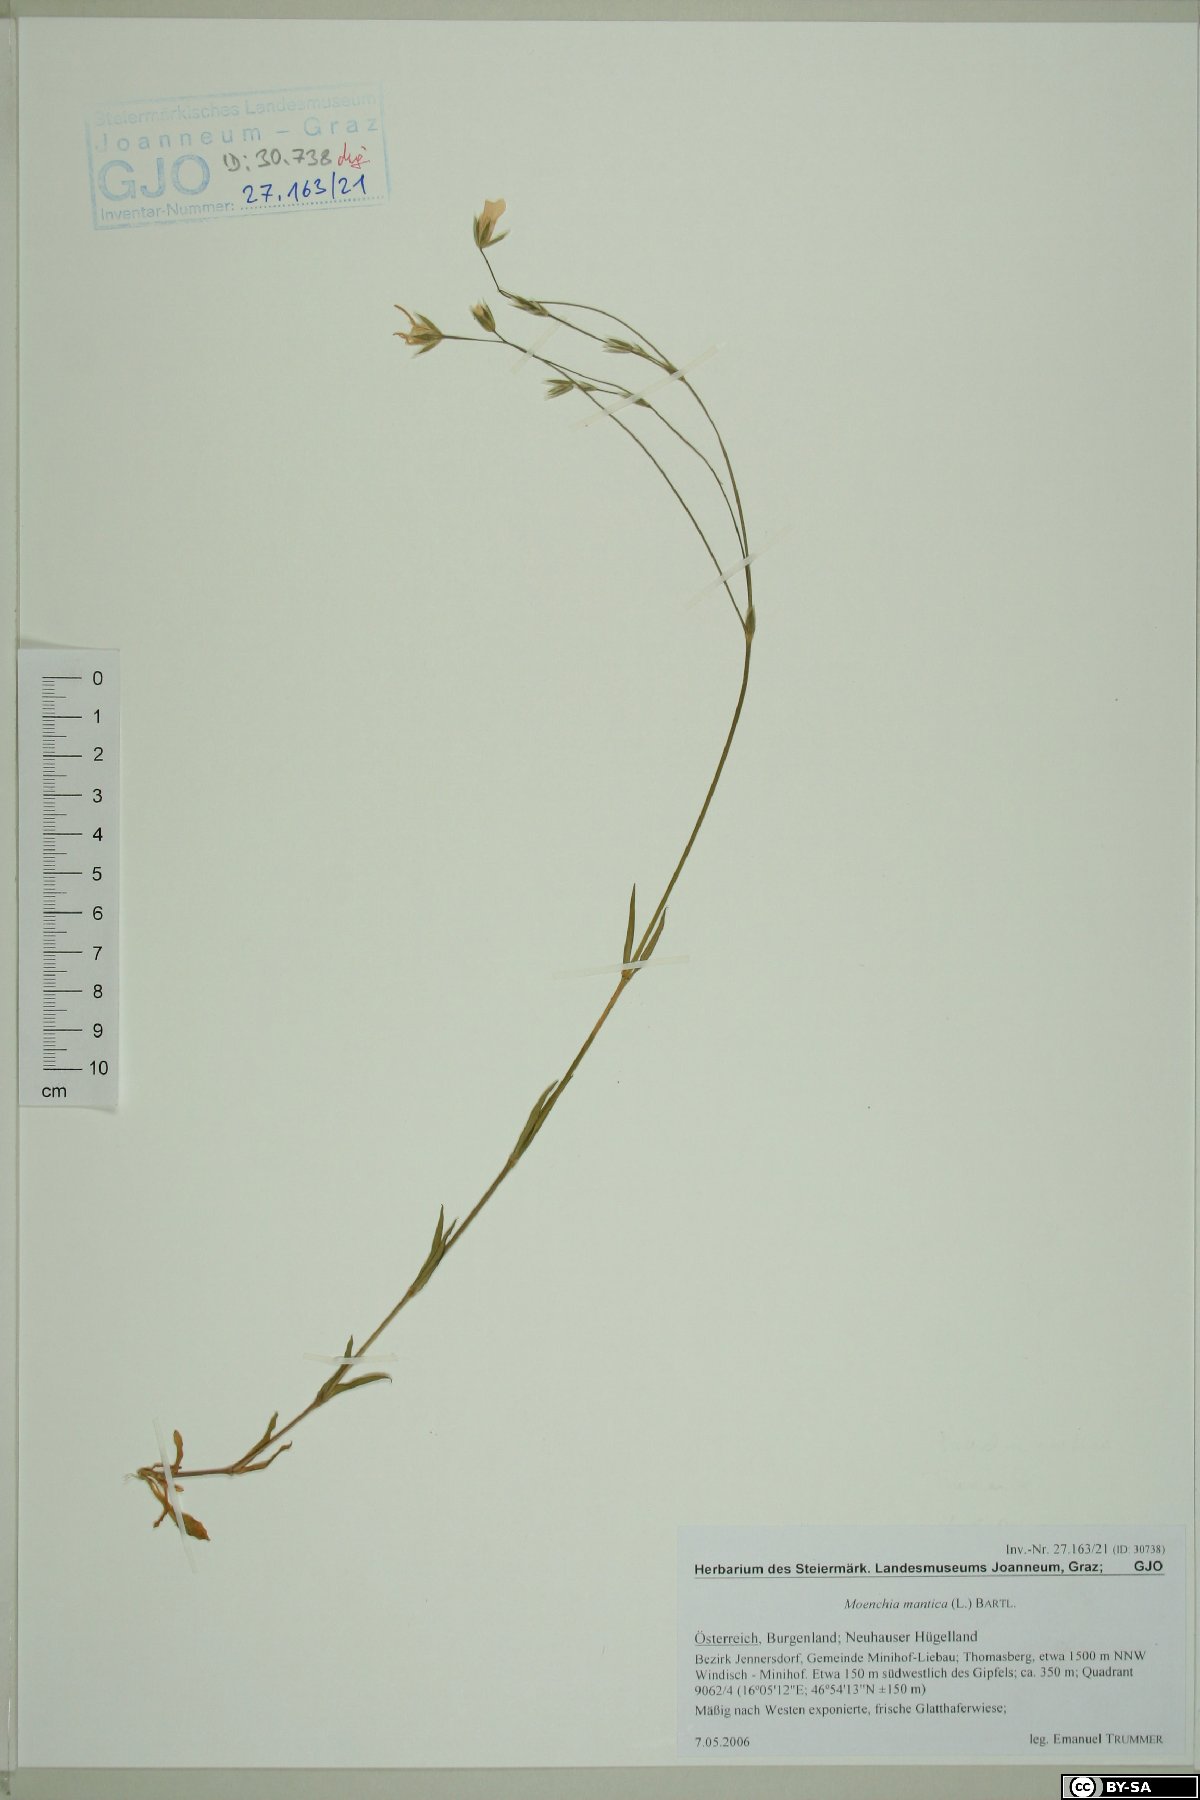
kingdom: Plantae
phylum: Tracheophyta
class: Magnoliopsida
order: Caryophyllales
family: Caryophyllaceae
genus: Moenchia
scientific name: Moenchia mantica
